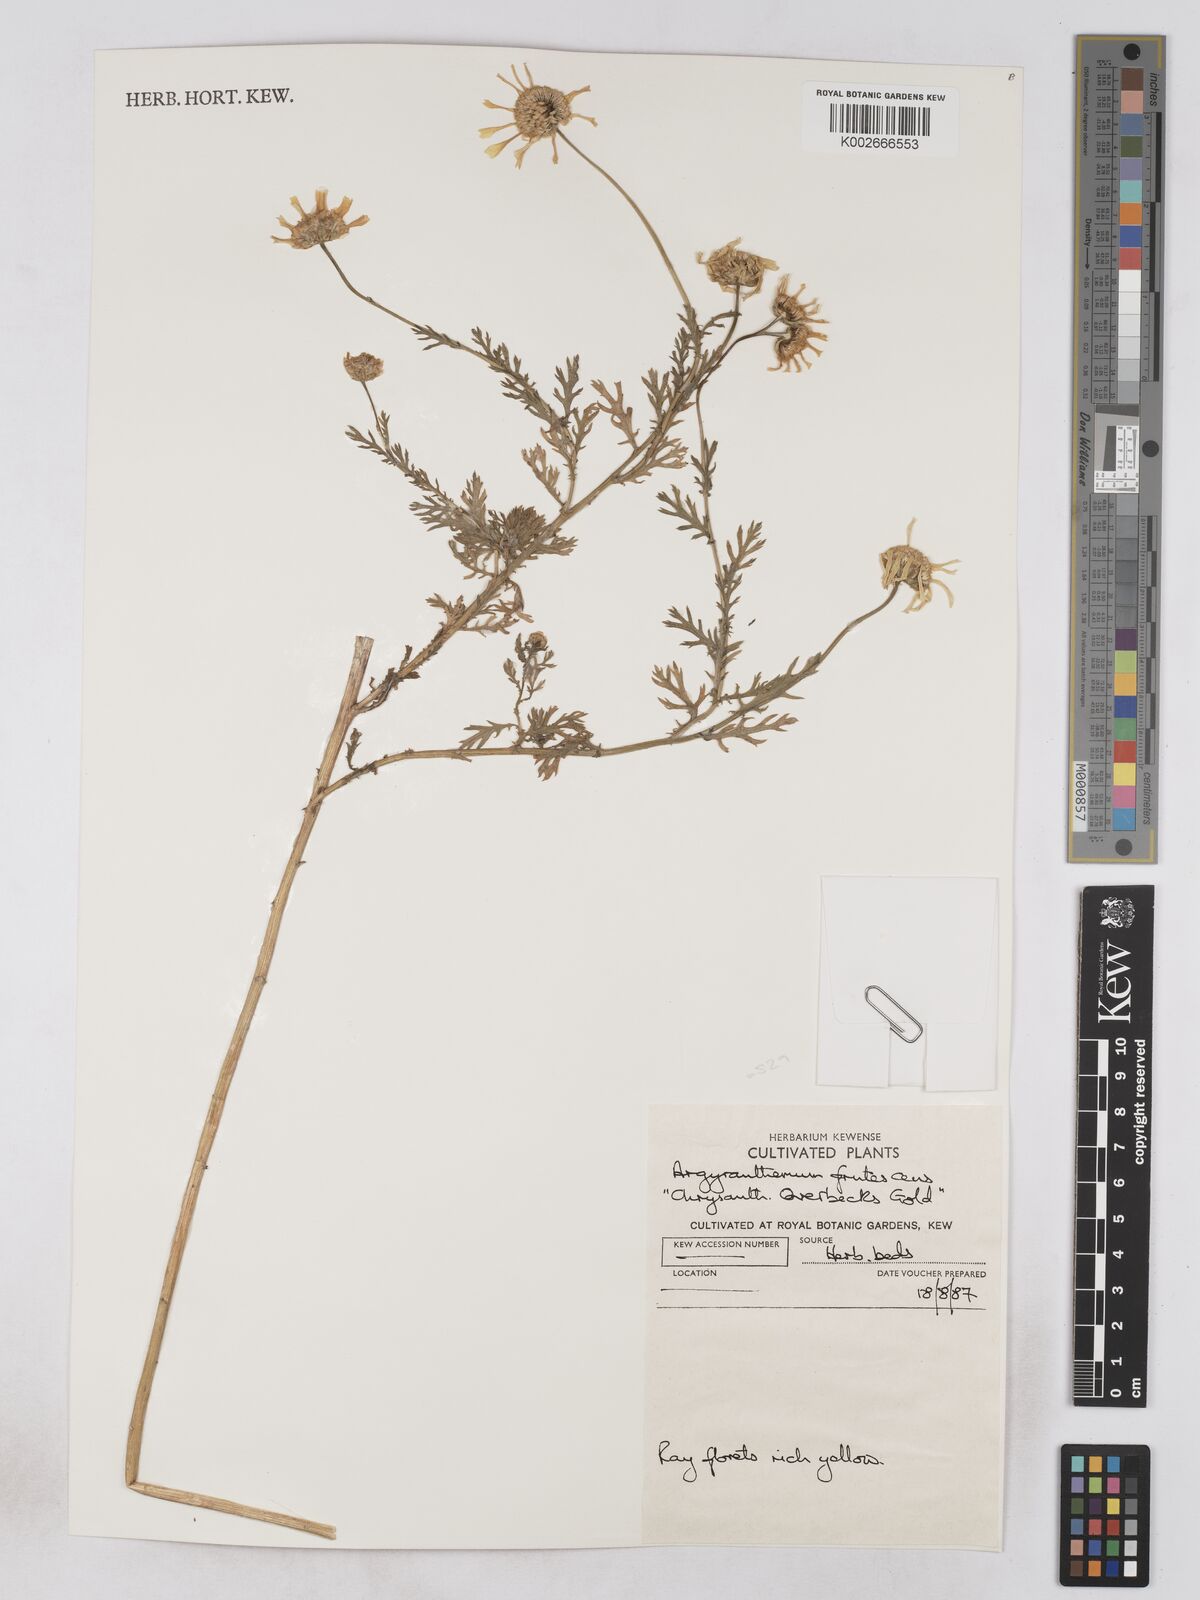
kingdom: Plantae
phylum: Tracheophyta
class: Magnoliopsida
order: Asterales
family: Asteraceae
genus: Argyranthemum
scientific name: Argyranthemum frutescens
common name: Paris daisy
